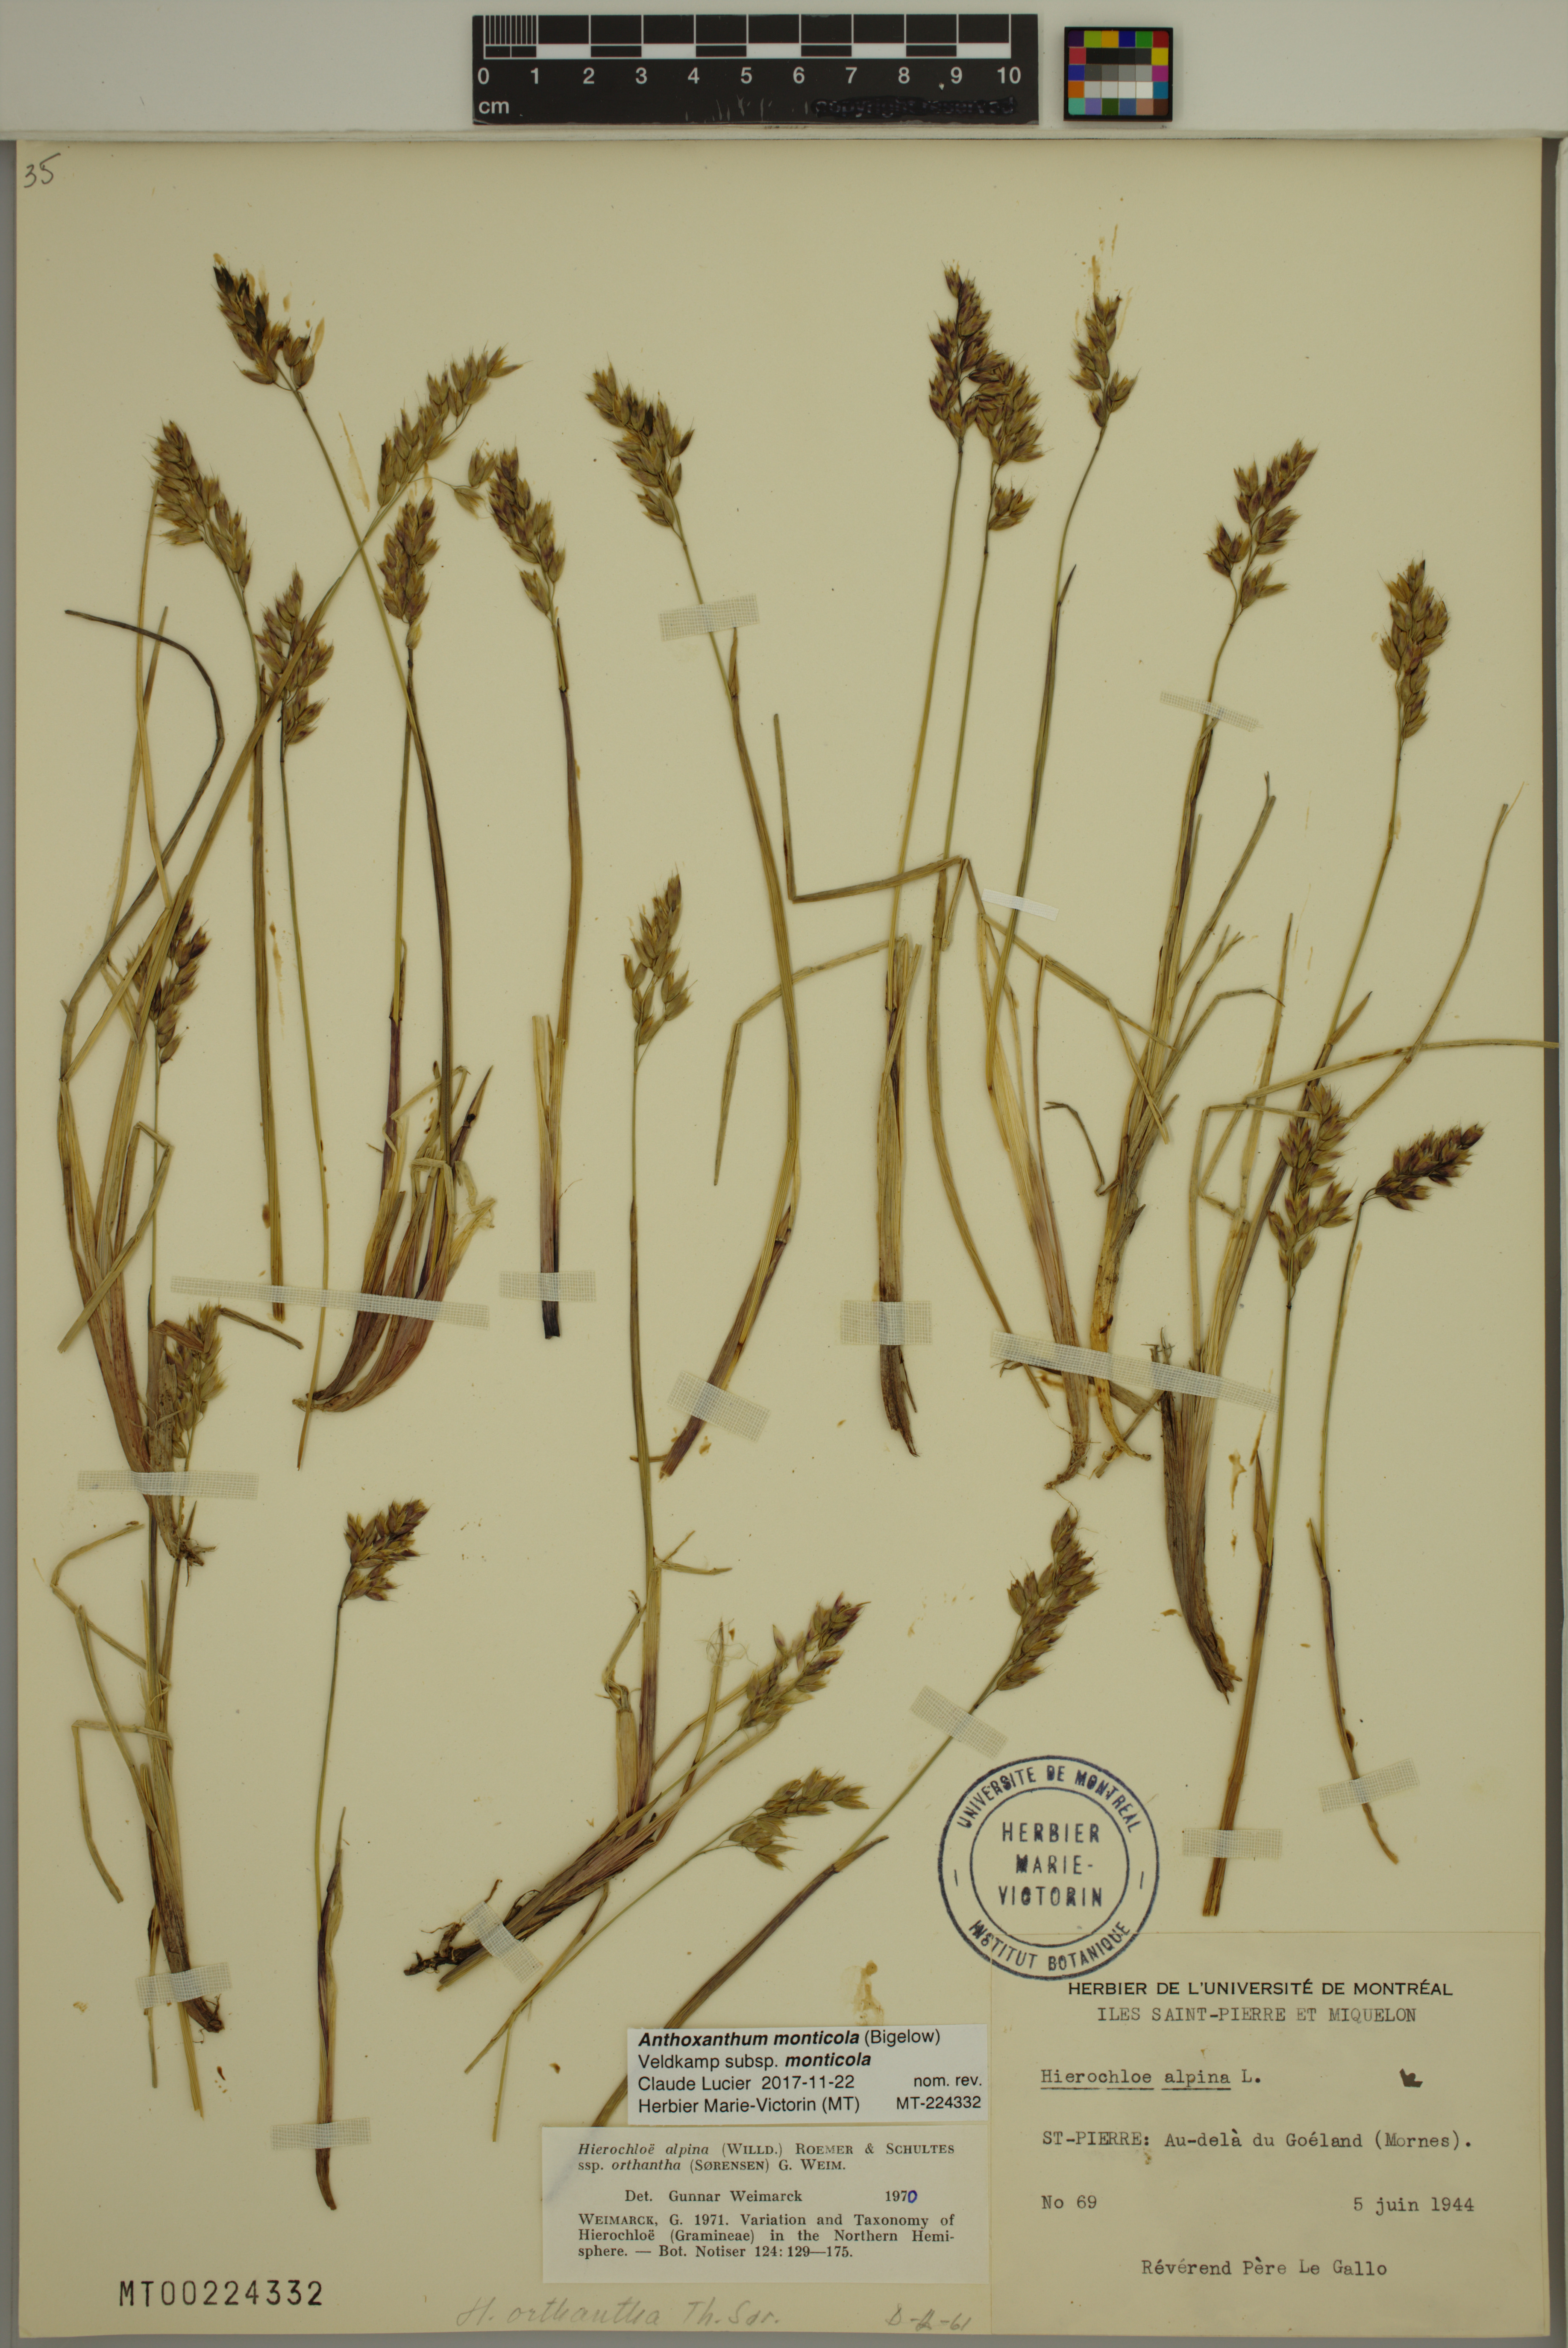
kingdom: Plantae
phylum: Tracheophyta
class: Liliopsida
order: Poales
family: Poaceae
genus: Anthoxanthum
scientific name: Anthoxanthum monticola
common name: Alpine sweetgrass
